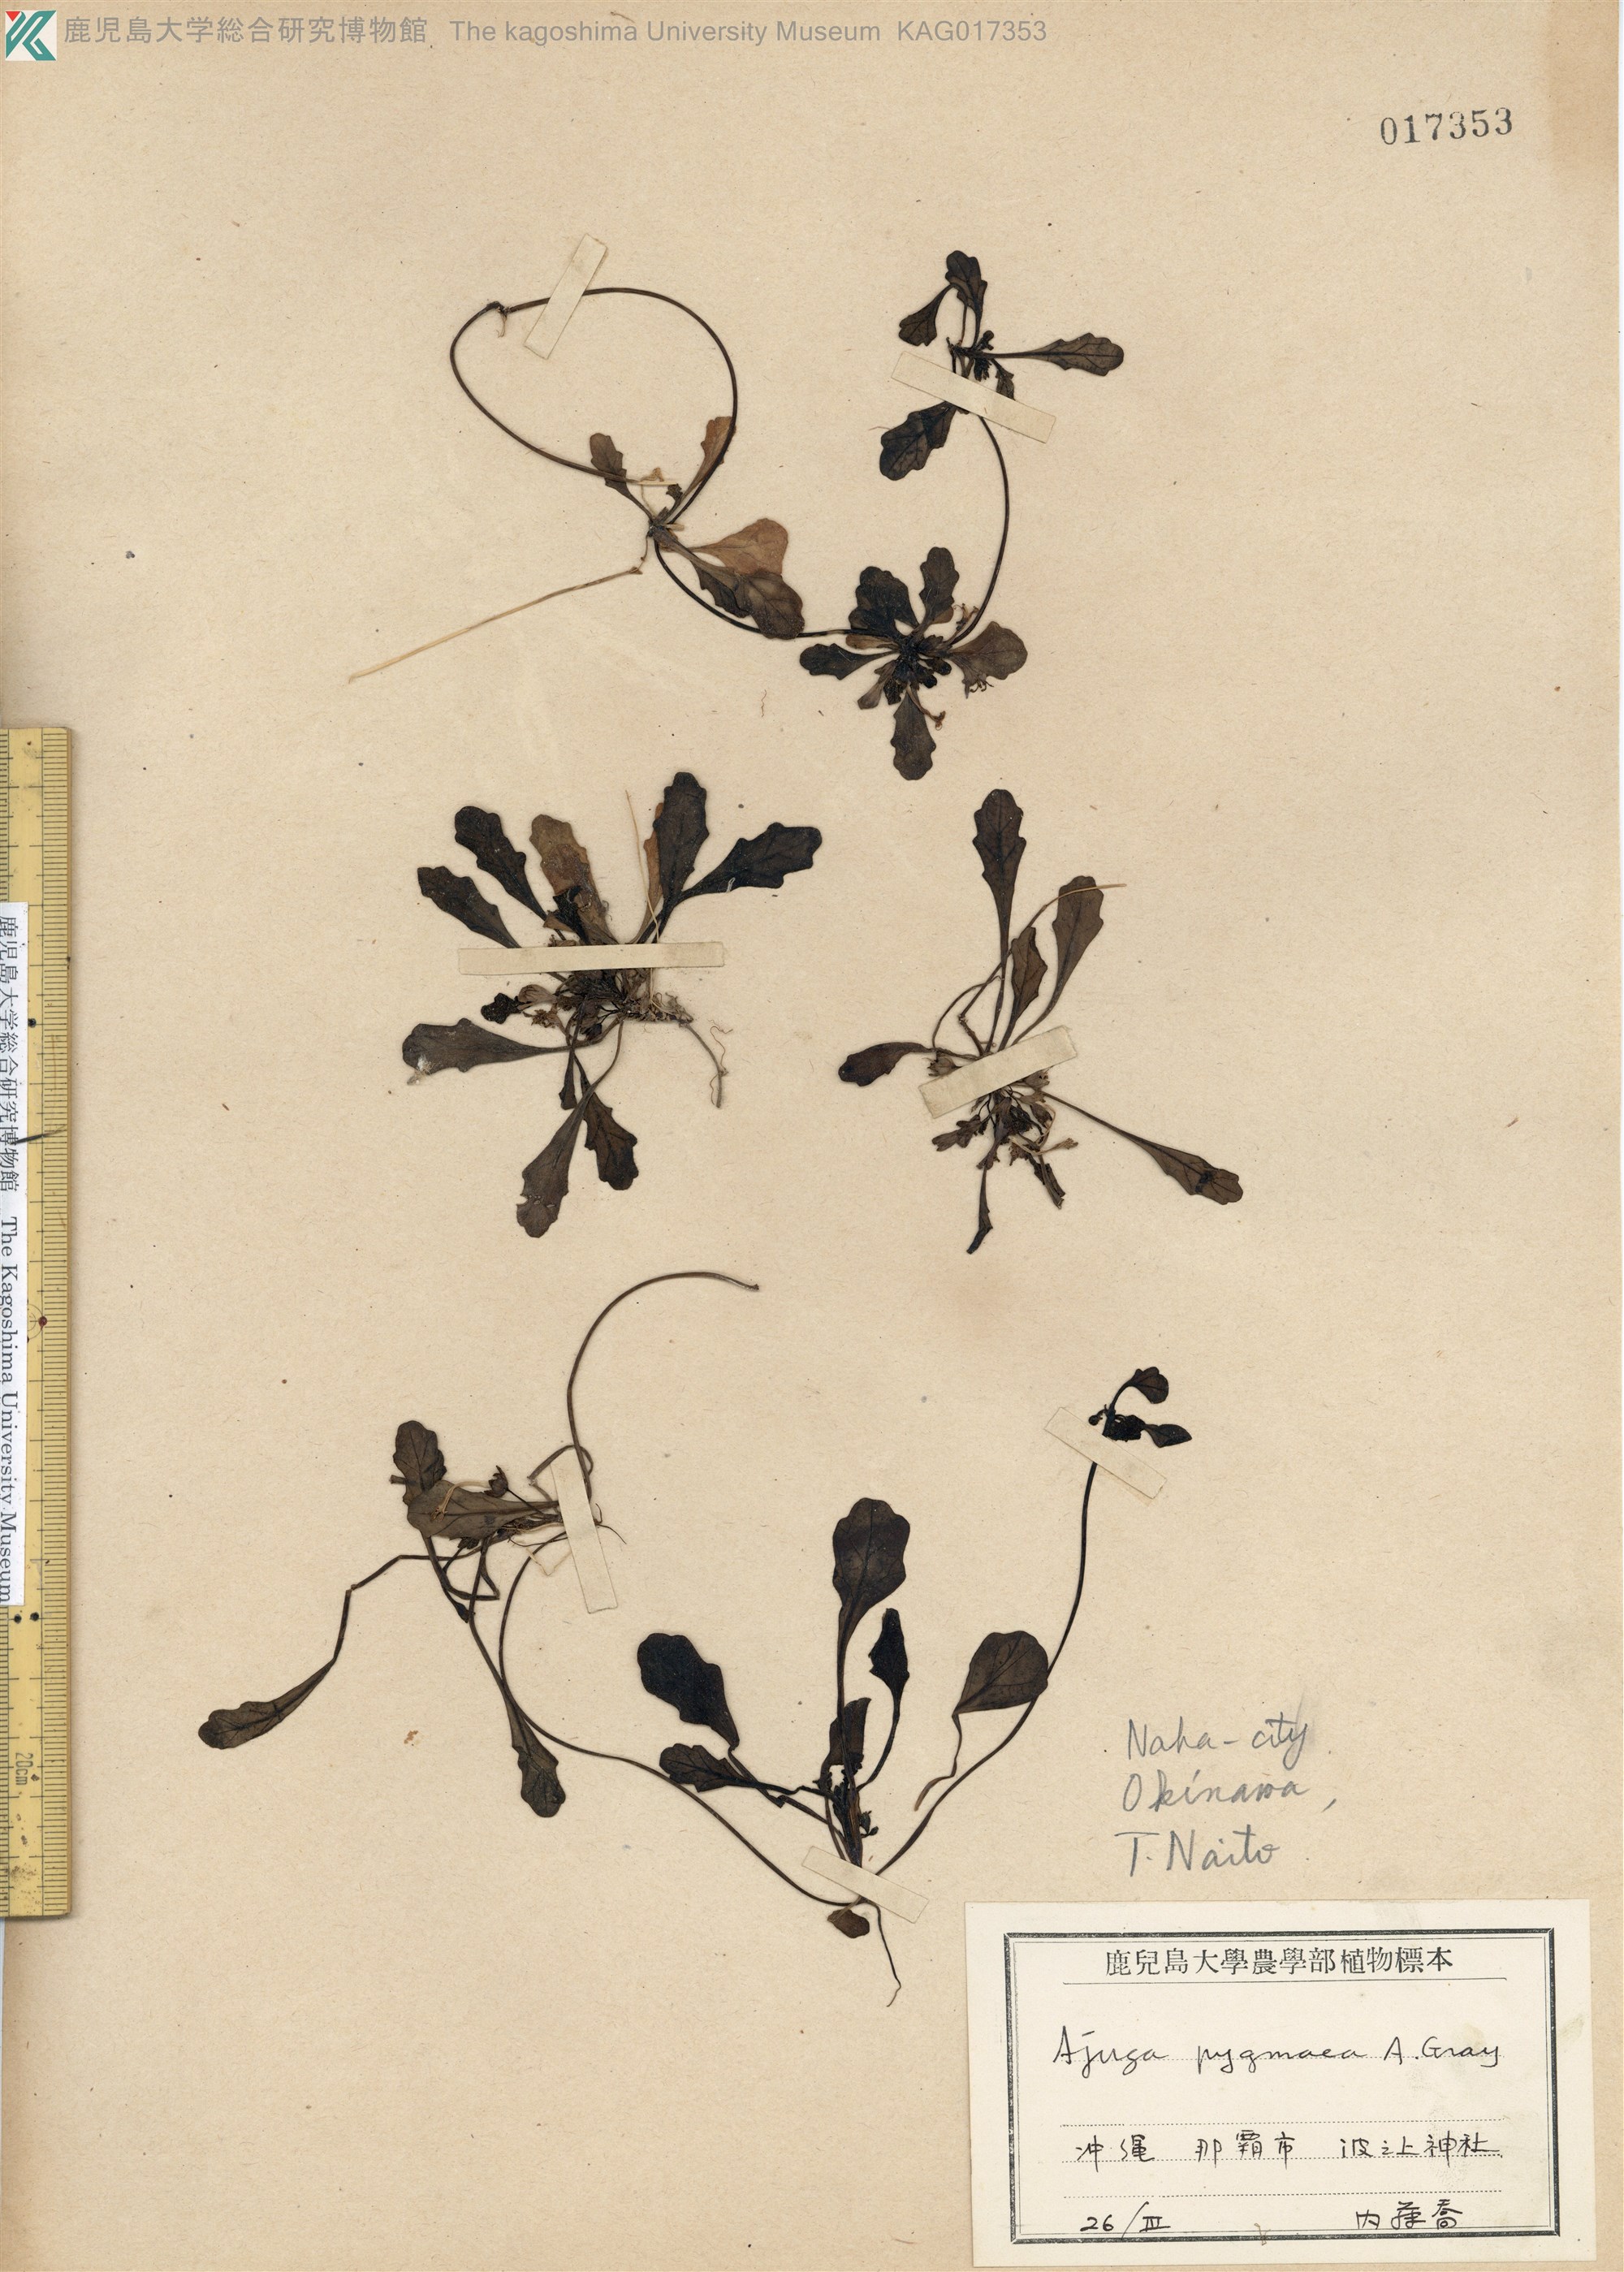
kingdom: Plantae
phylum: Tracheophyta
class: Magnoliopsida
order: Lamiales
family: Lamiaceae
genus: Ajuga
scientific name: Ajuga pygmaea
